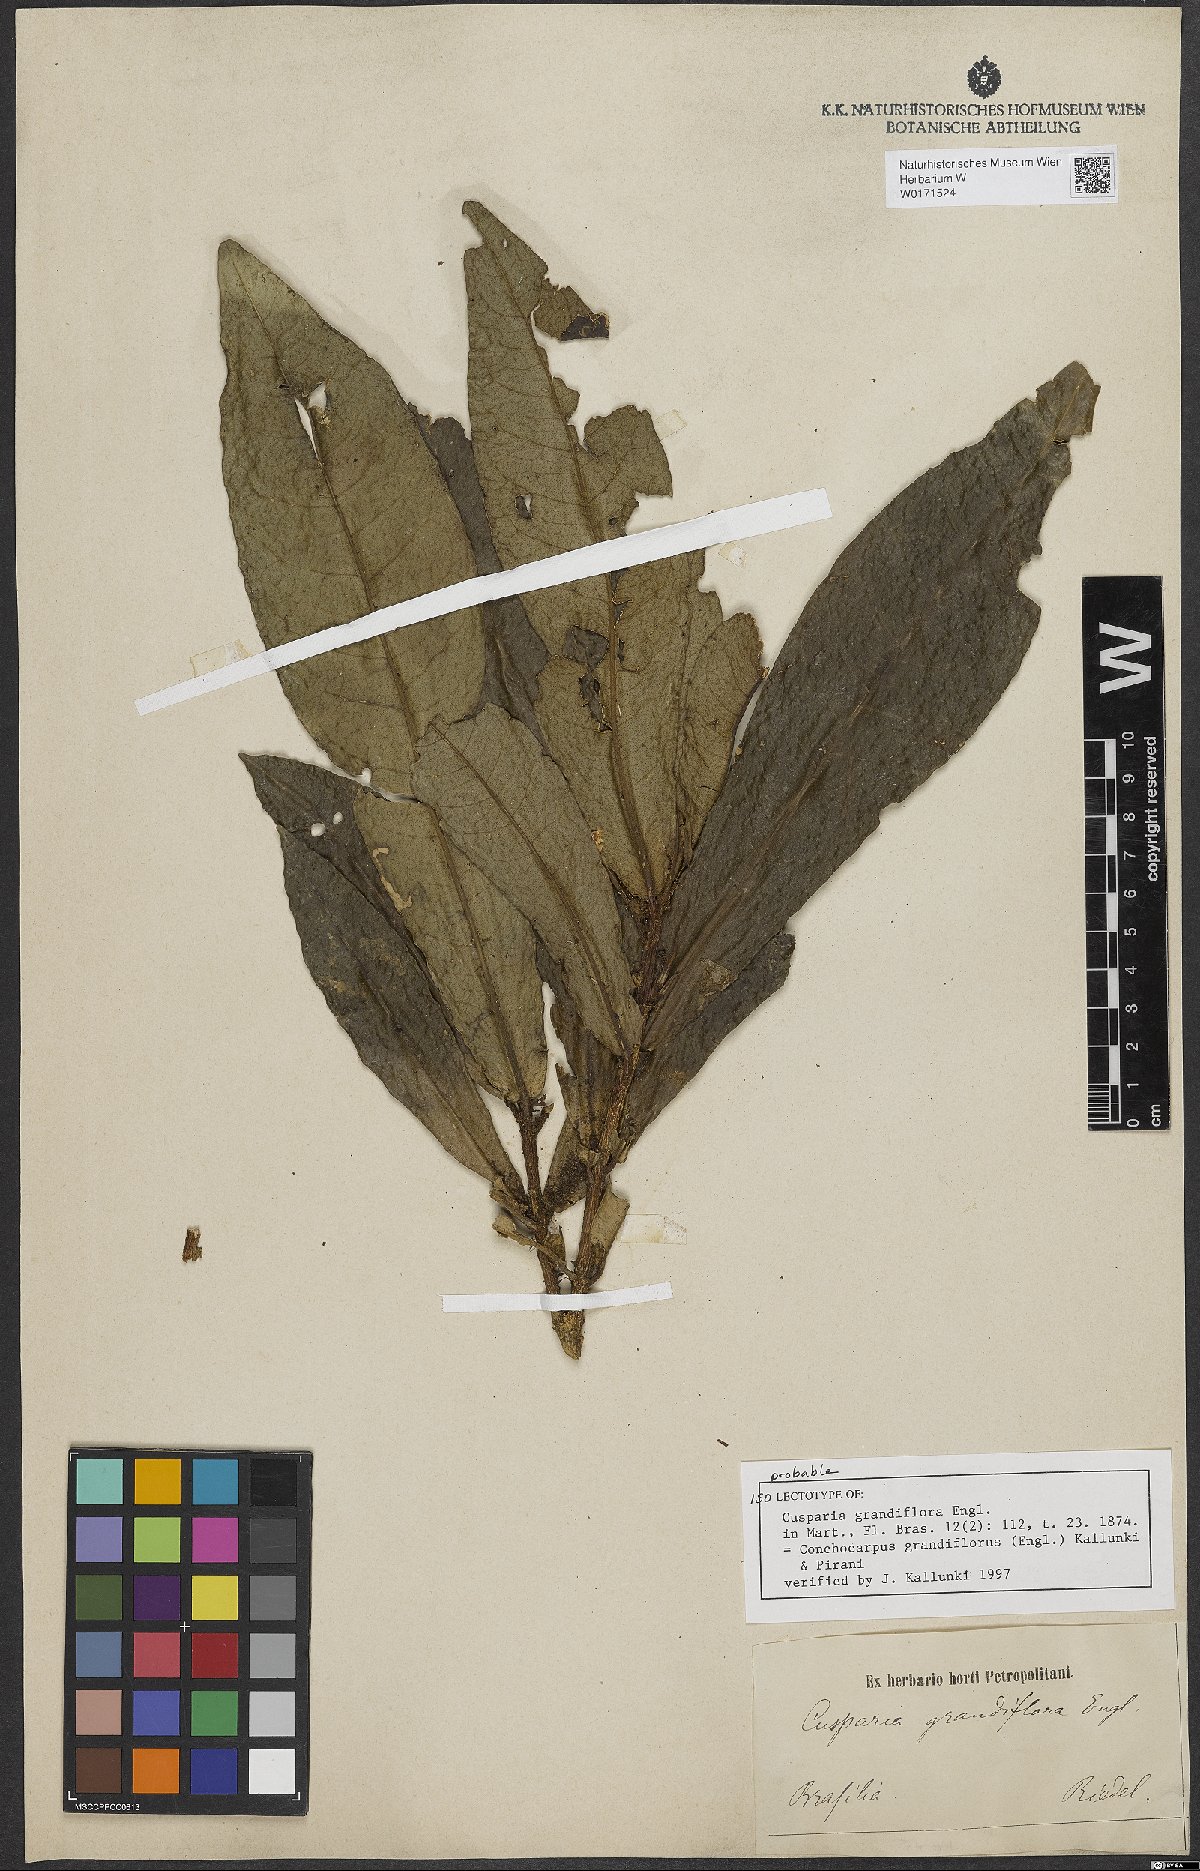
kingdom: Plantae
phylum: Tracheophyta
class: Magnoliopsida
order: Sapindales
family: Rutaceae
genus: Conchocarpus
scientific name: Conchocarpus grandiflorus
